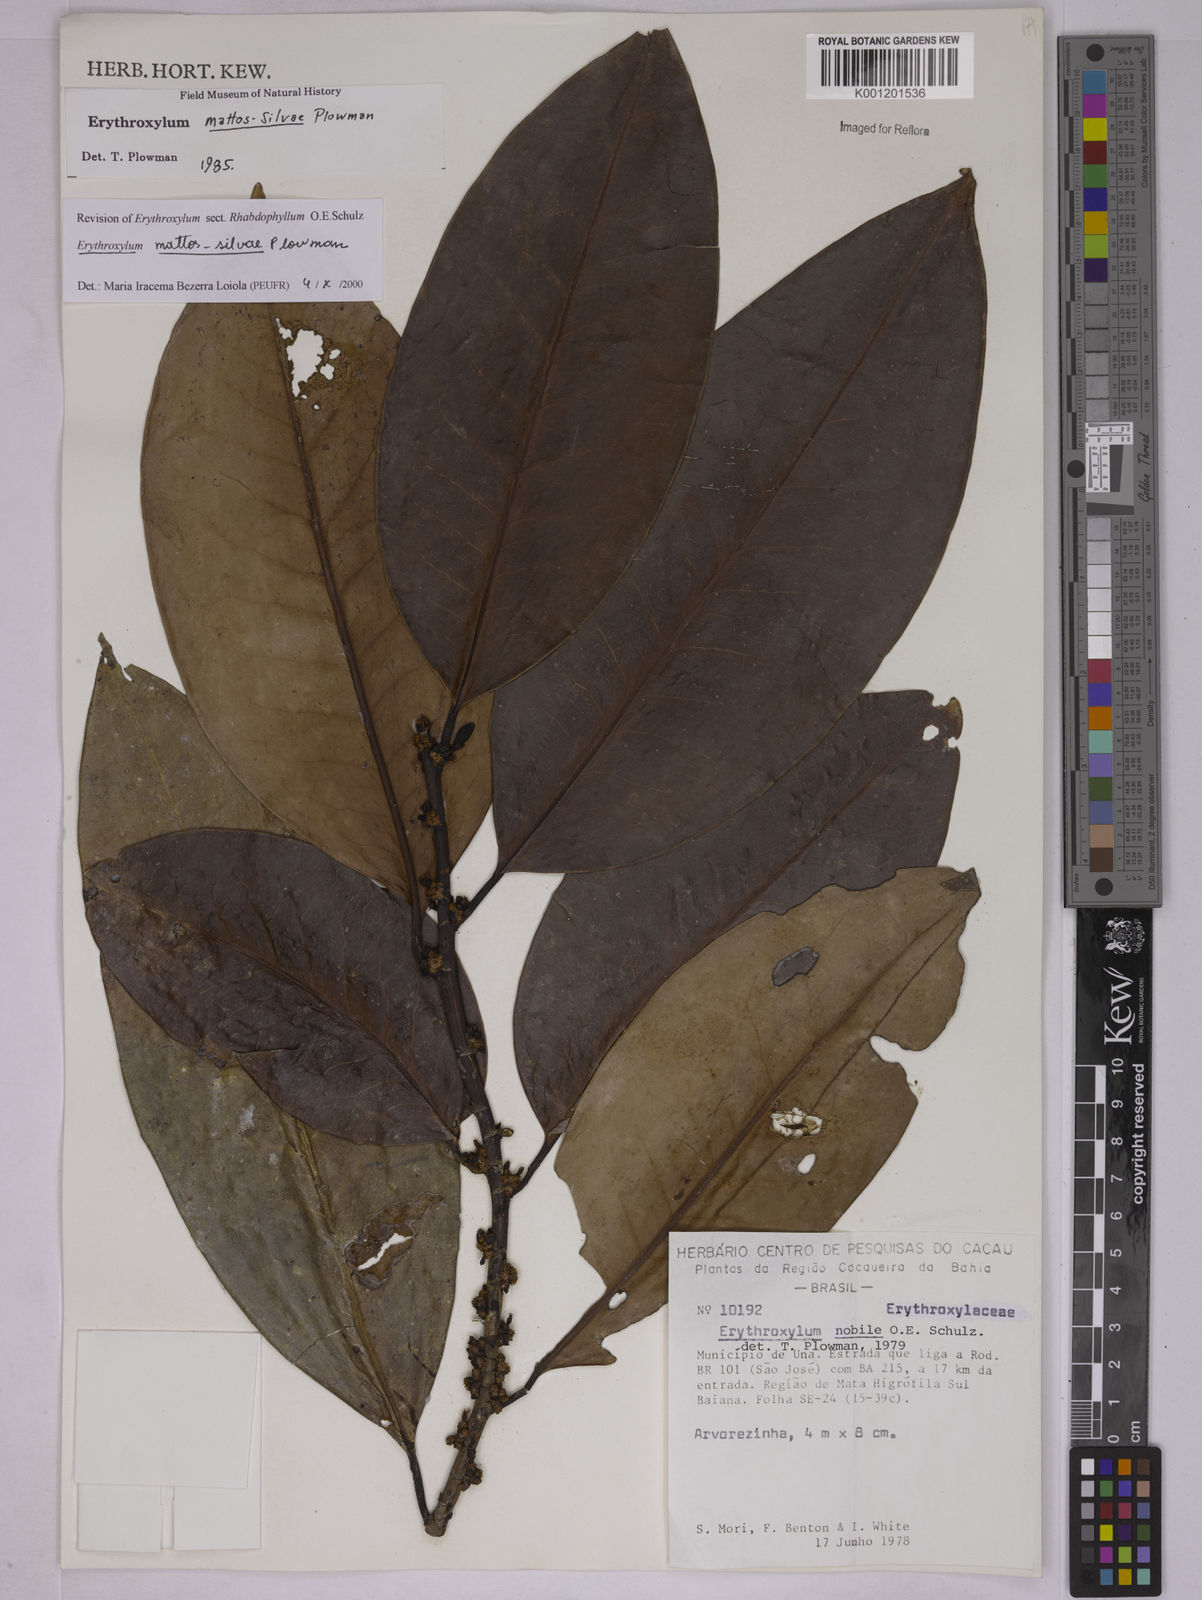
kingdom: Plantae
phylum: Tracheophyta
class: Magnoliopsida
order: Malpighiales
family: Erythroxylaceae
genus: Erythroxylum
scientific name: Erythroxylum mattos-silvae
